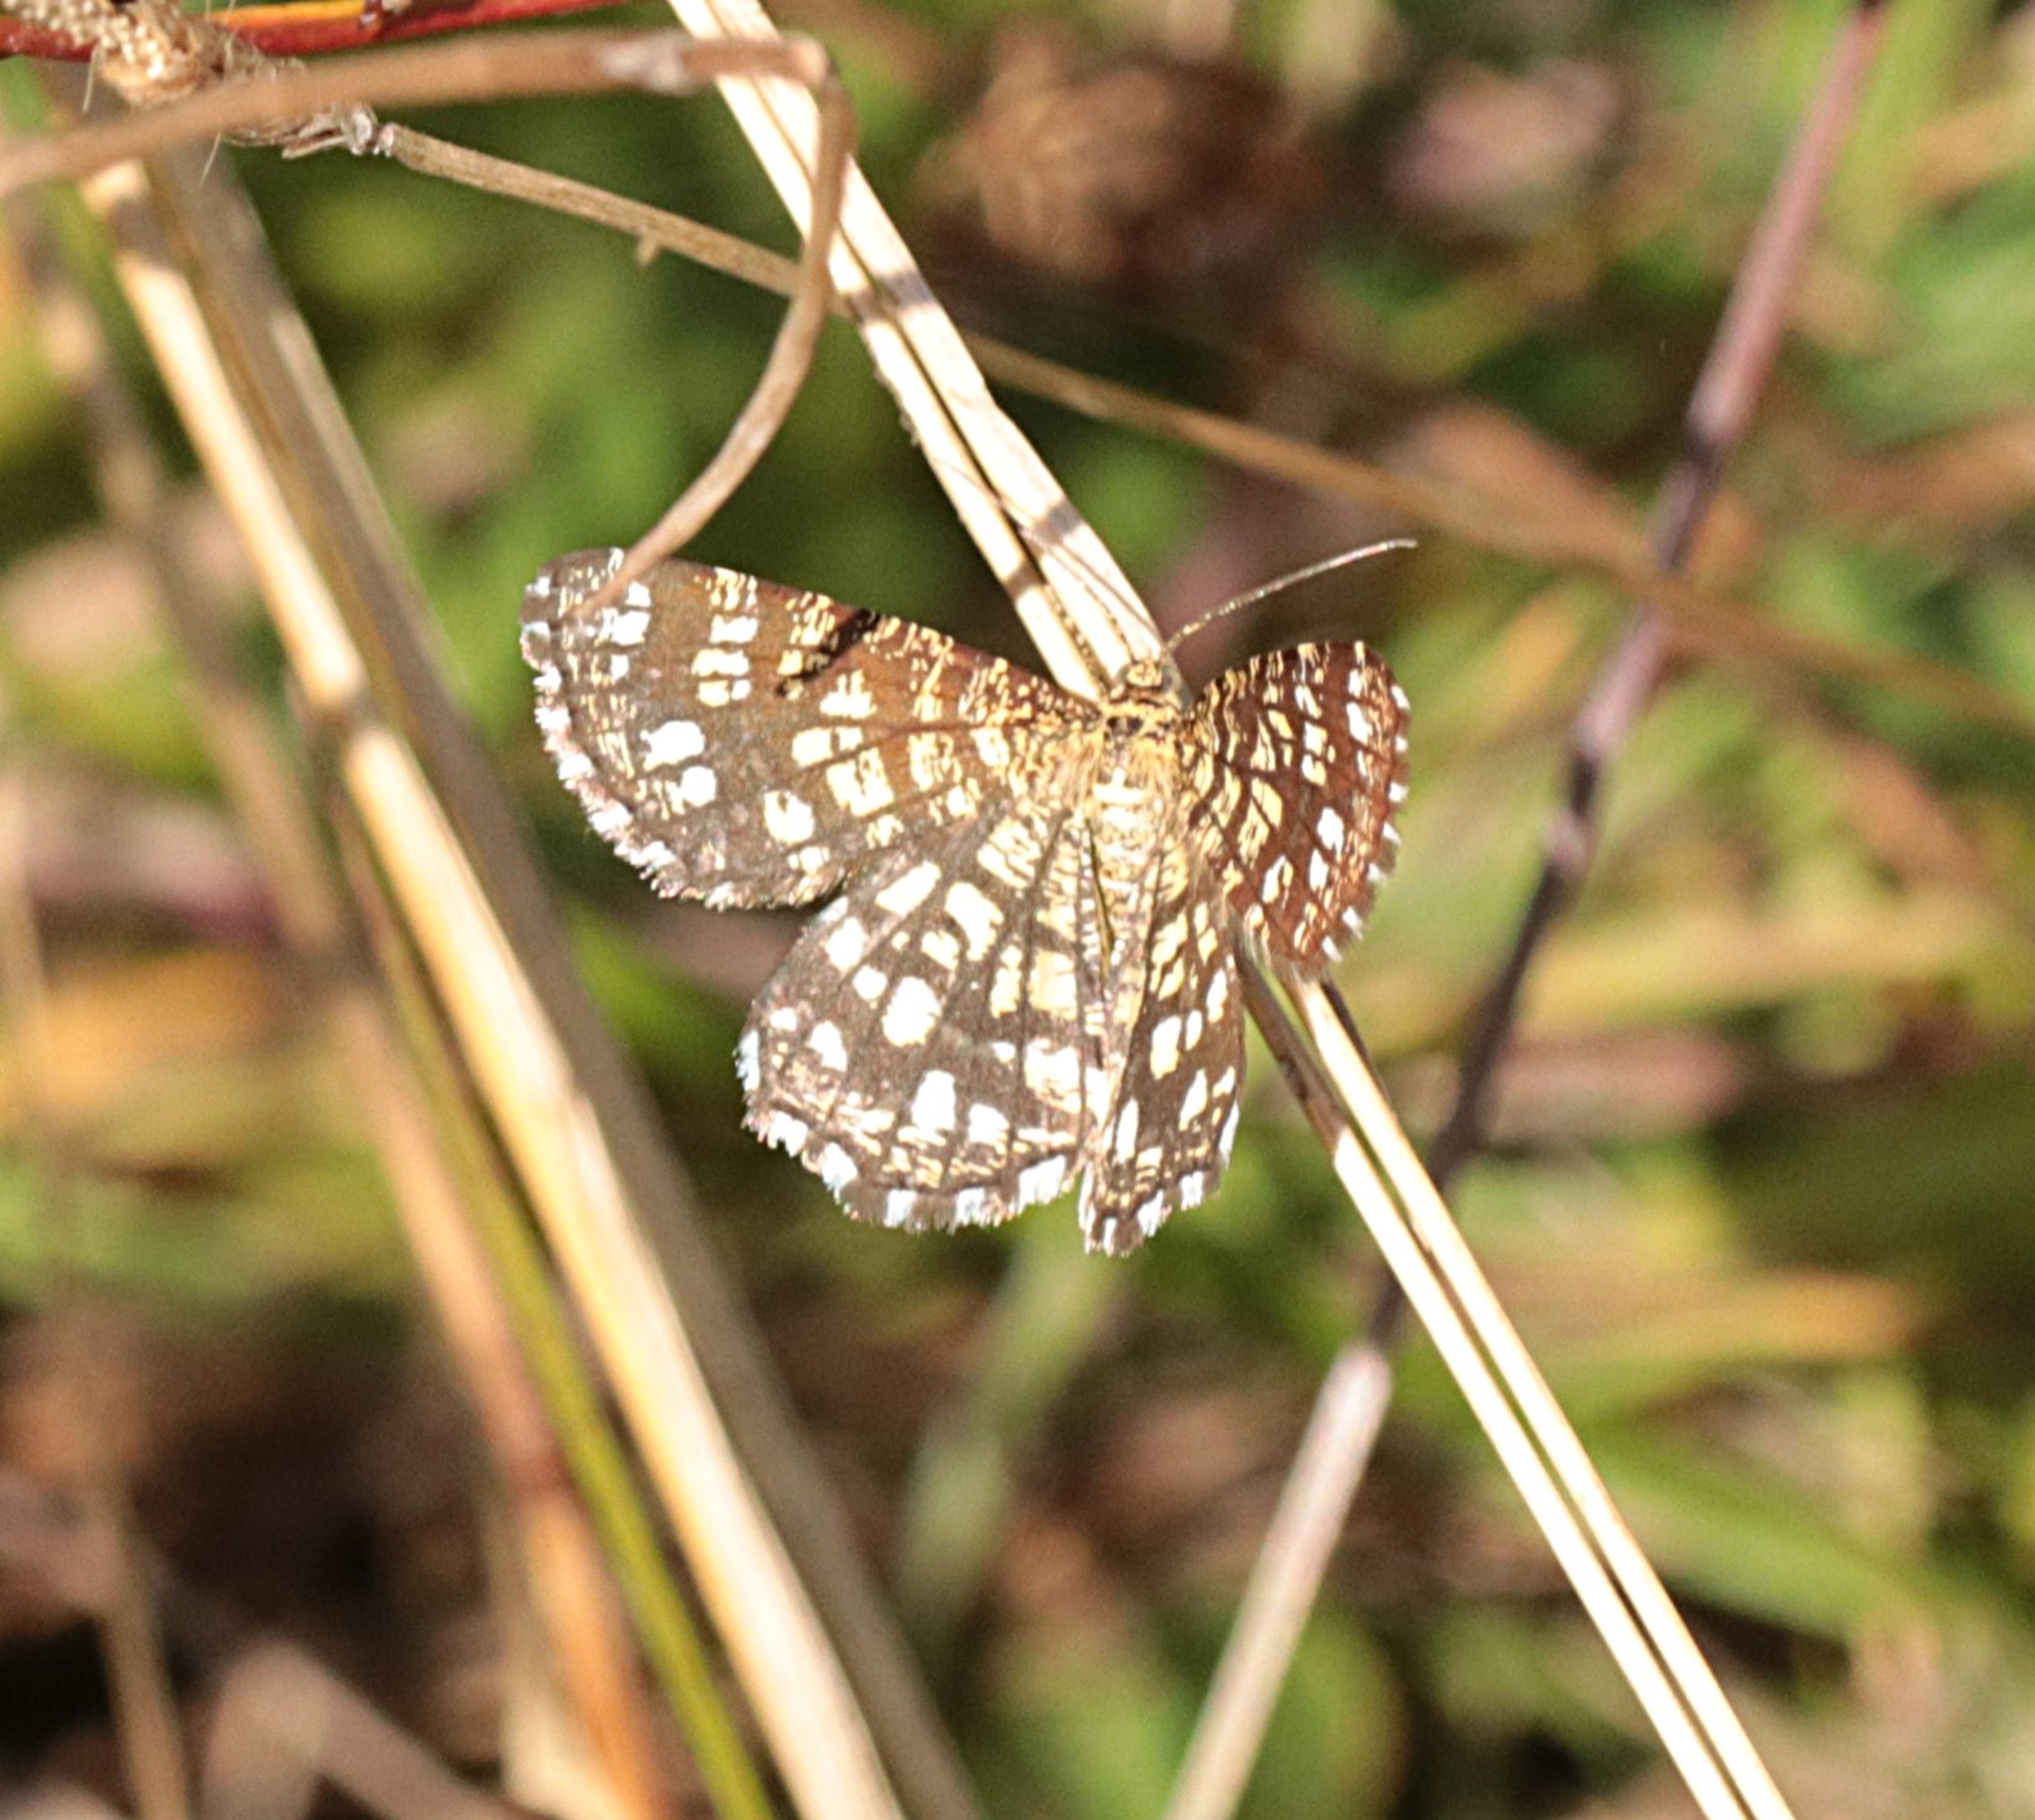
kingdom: Animalia
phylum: Arthropoda
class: Insecta
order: Lepidoptera
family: Geometridae
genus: Chiasmia
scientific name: Chiasmia clathrata
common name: Kløvermåler
